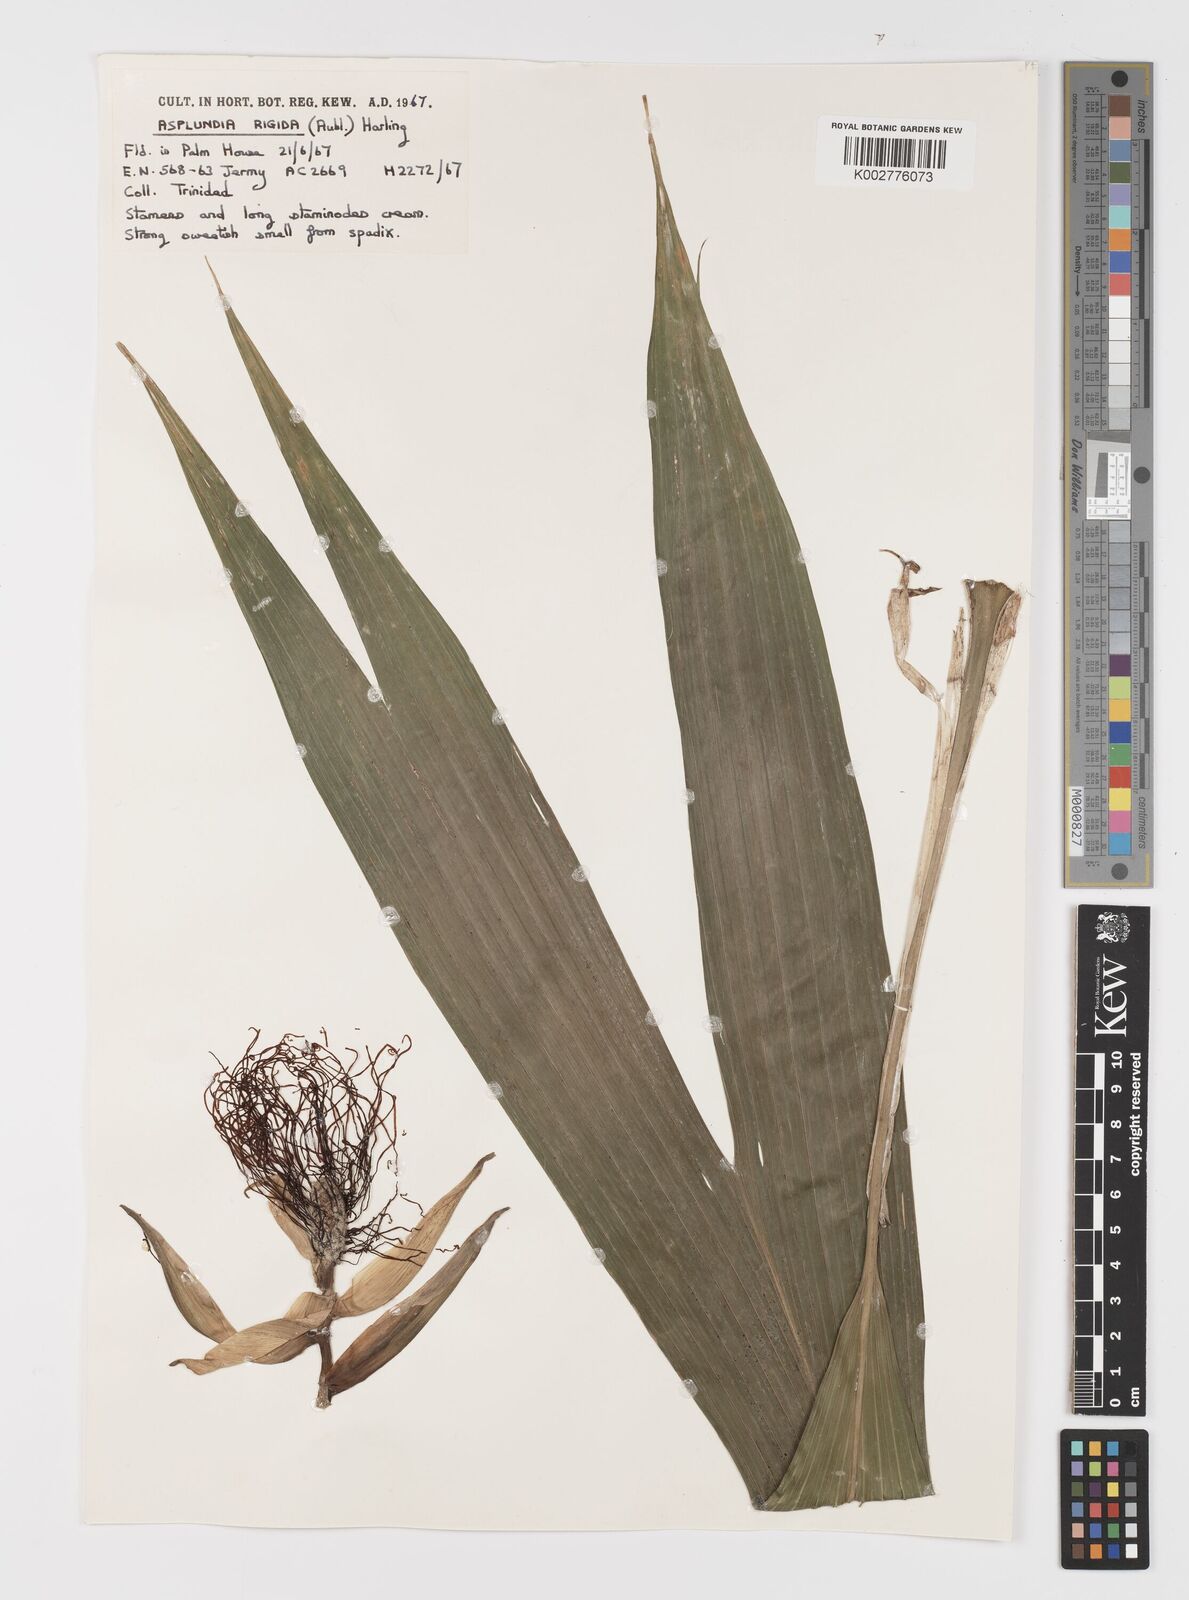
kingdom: Plantae
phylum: Tracheophyta
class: Liliopsida
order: Pandanales
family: Cyclanthaceae
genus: Asplundia
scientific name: Asplundia rigida
